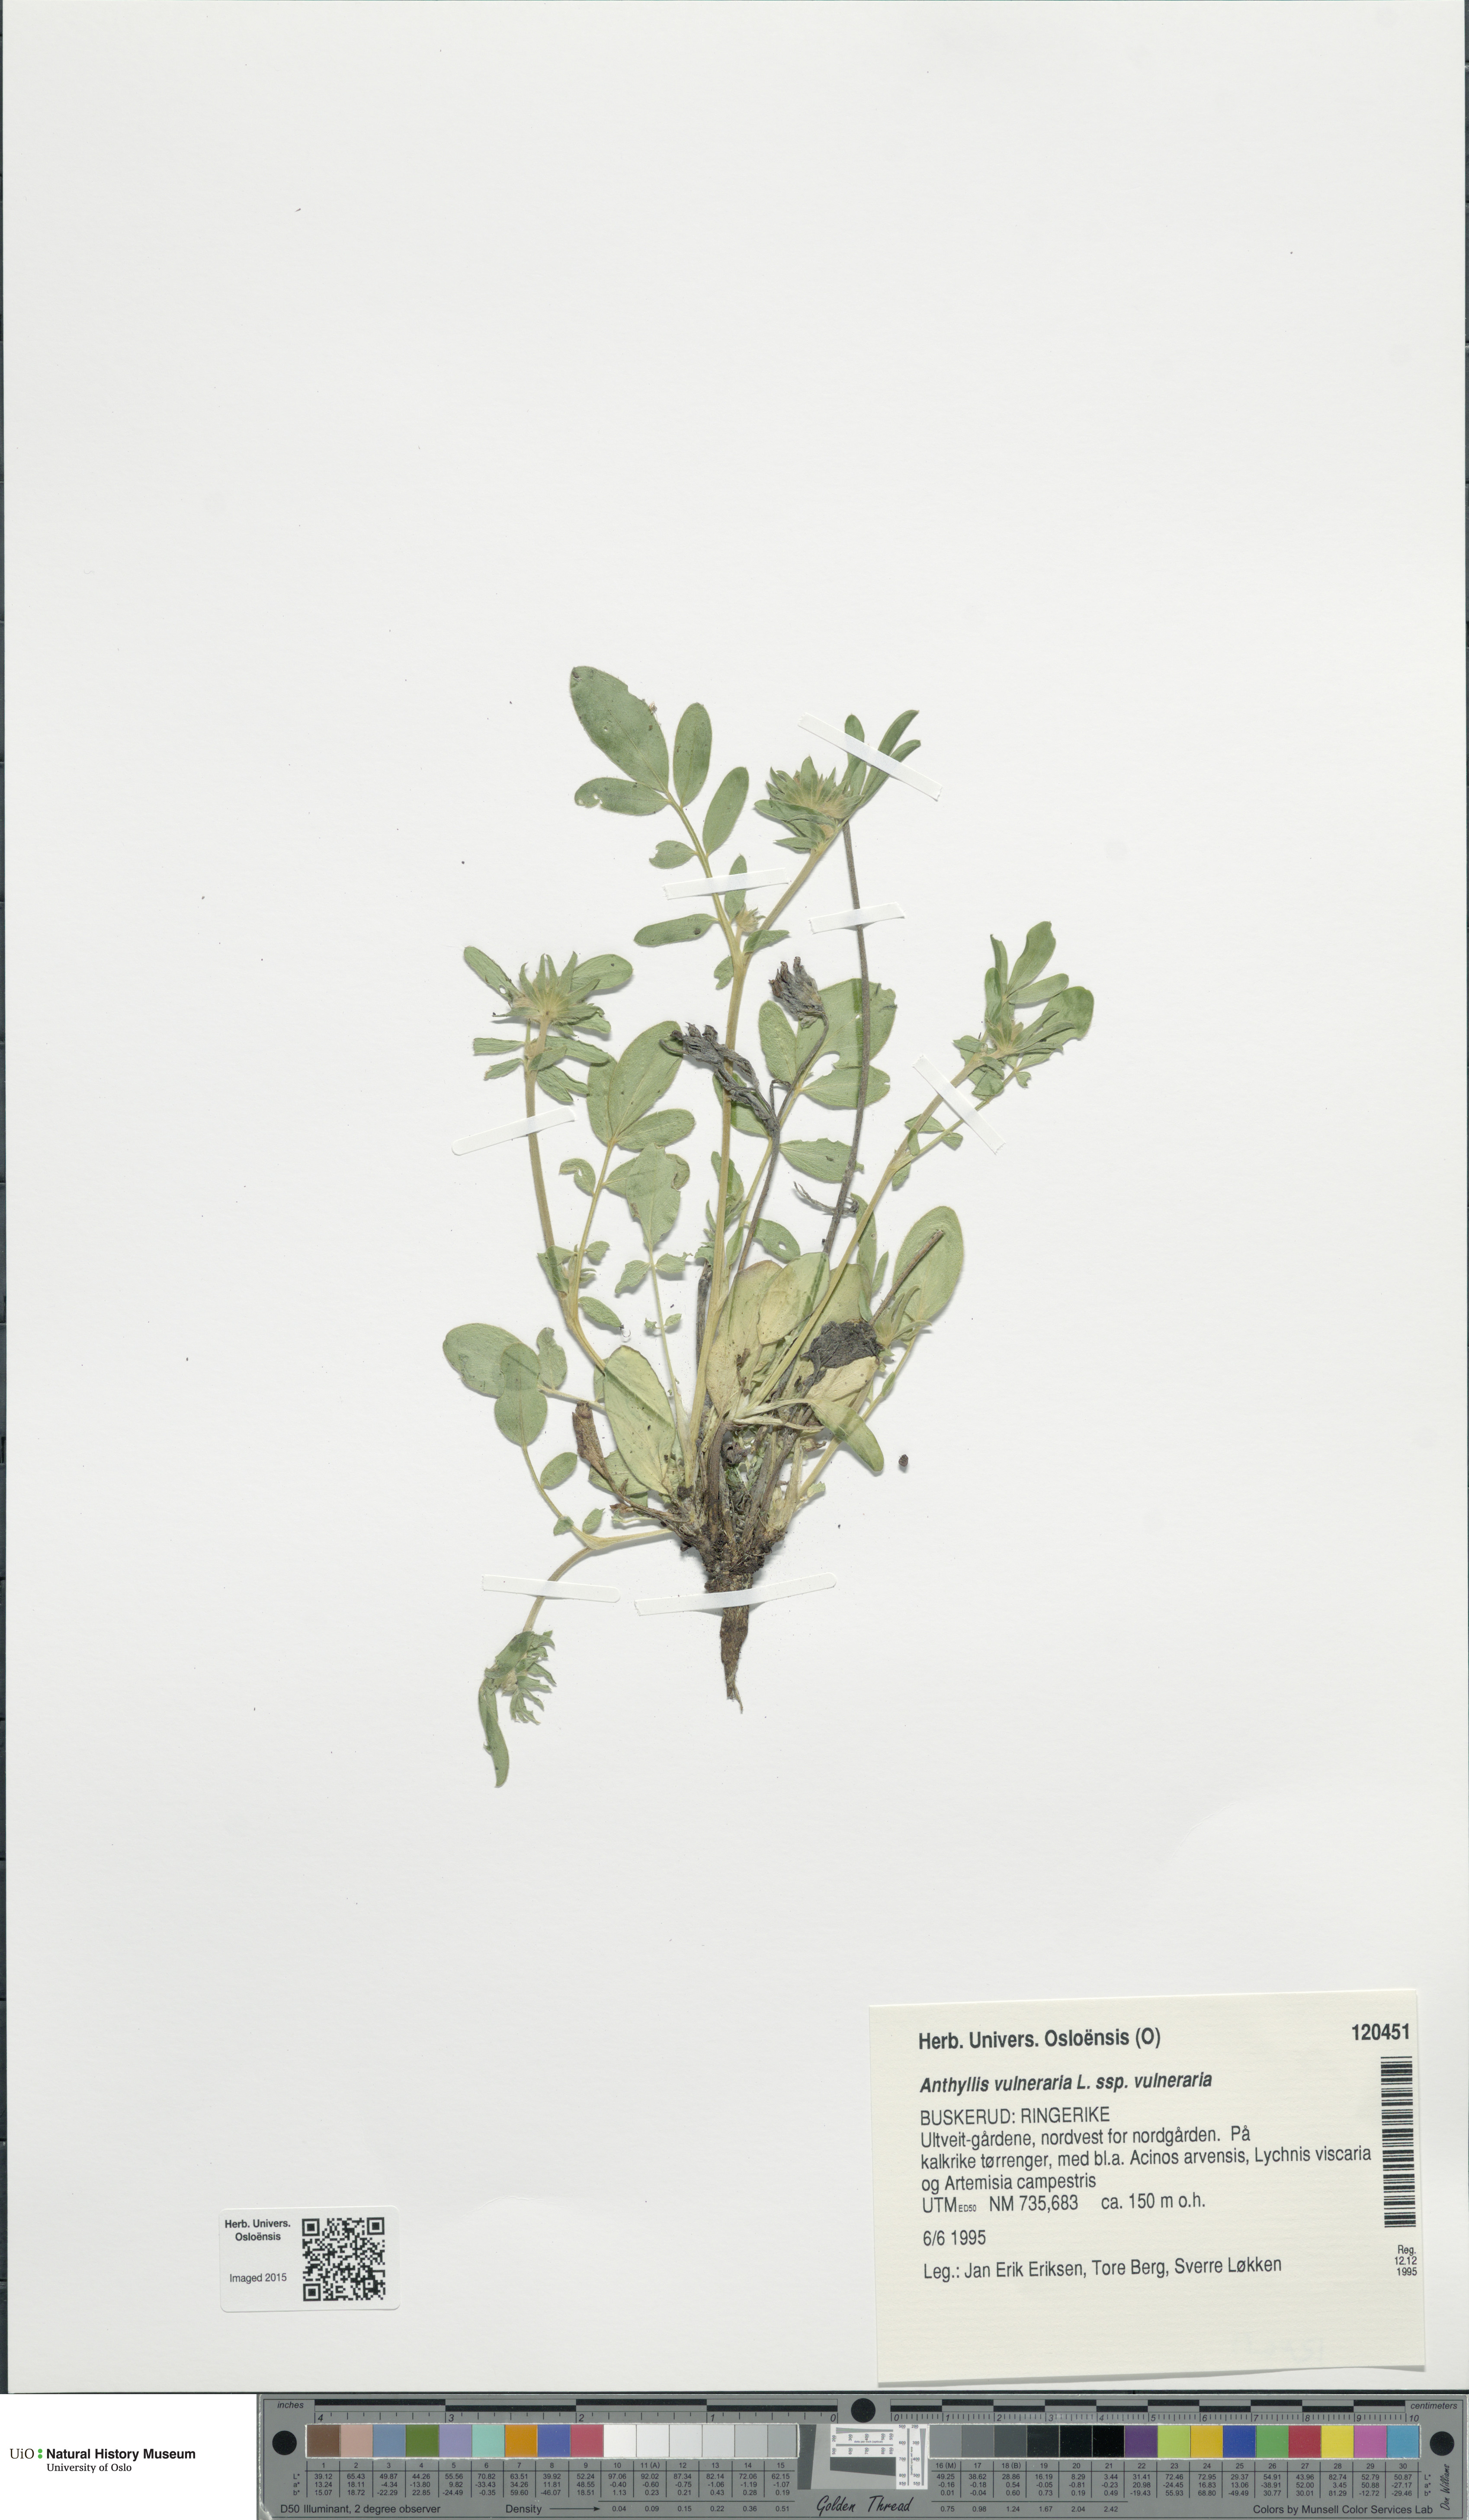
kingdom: Plantae
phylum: Tracheophyta
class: Magnoliopsida
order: Fabales
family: Fabaceae
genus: Anthyllis
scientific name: Anthyllis vulneraria
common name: Kidney vetch
